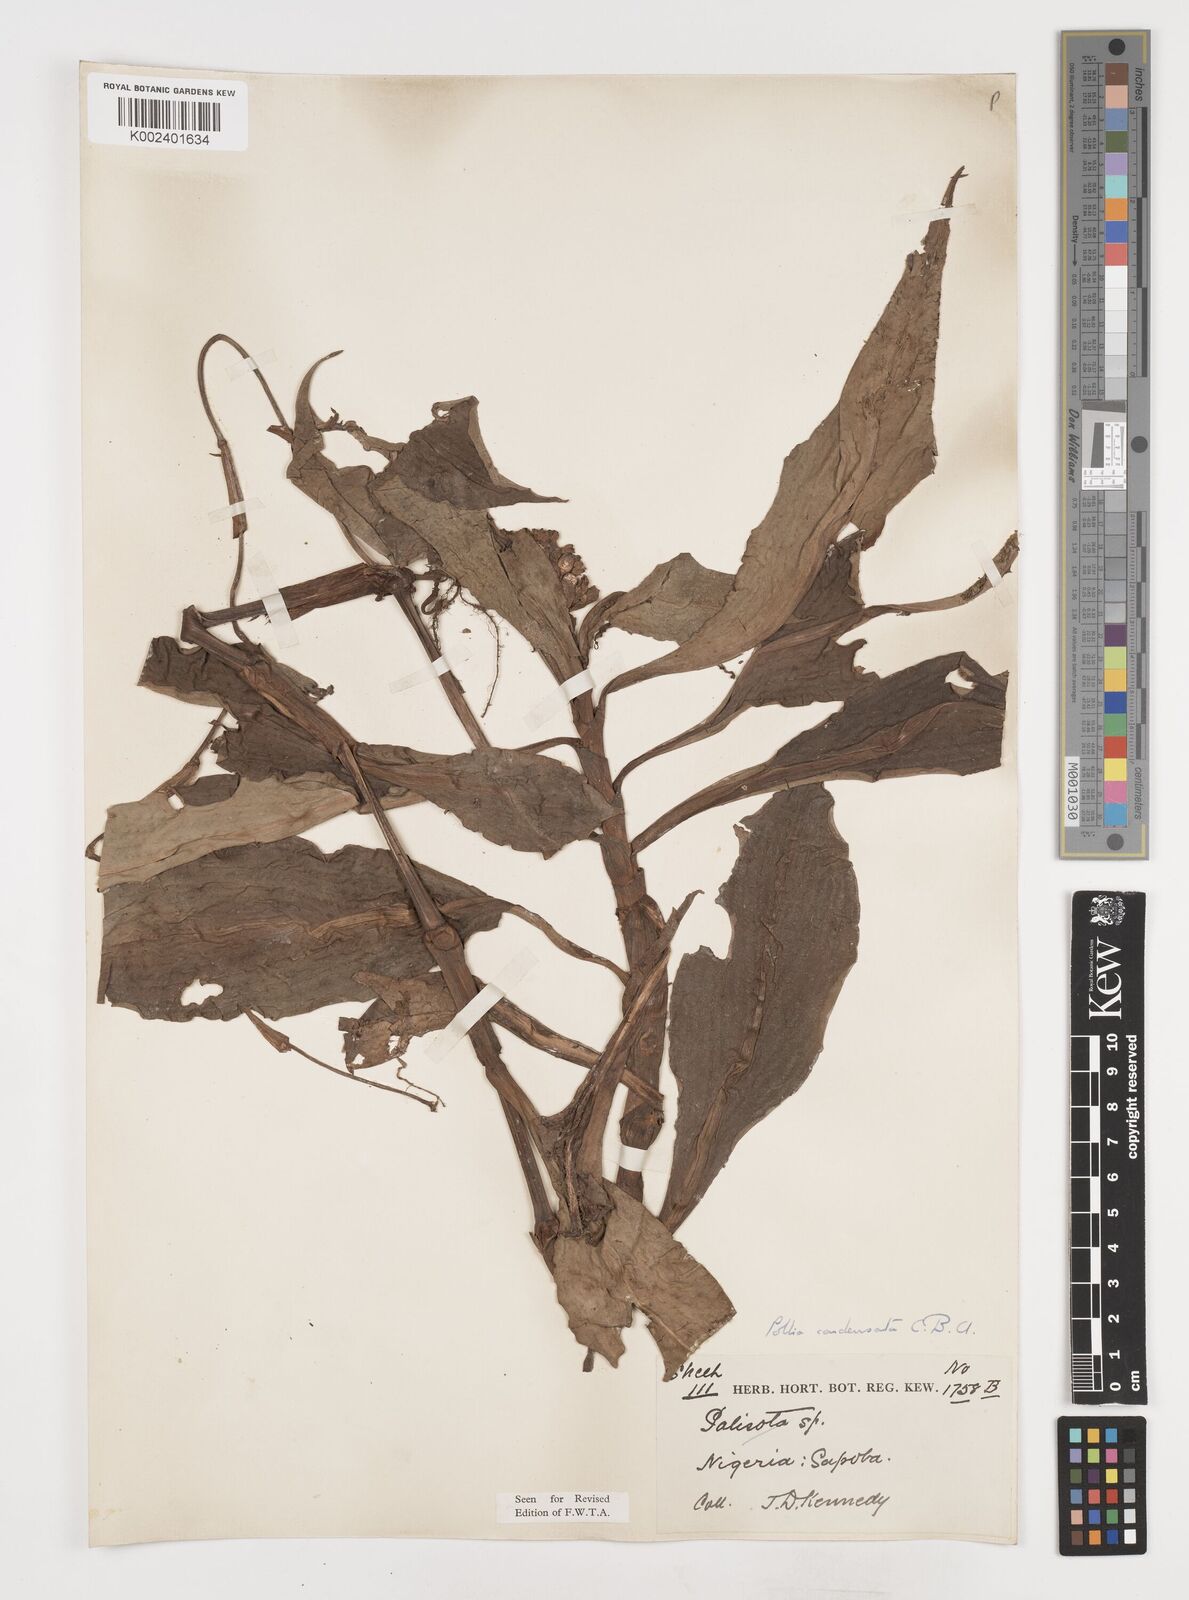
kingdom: Plantae
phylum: Tracheophyta
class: Liliopsida
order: Commelinales
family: Commelinaceae
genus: Pollia
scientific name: Pollia condensata
